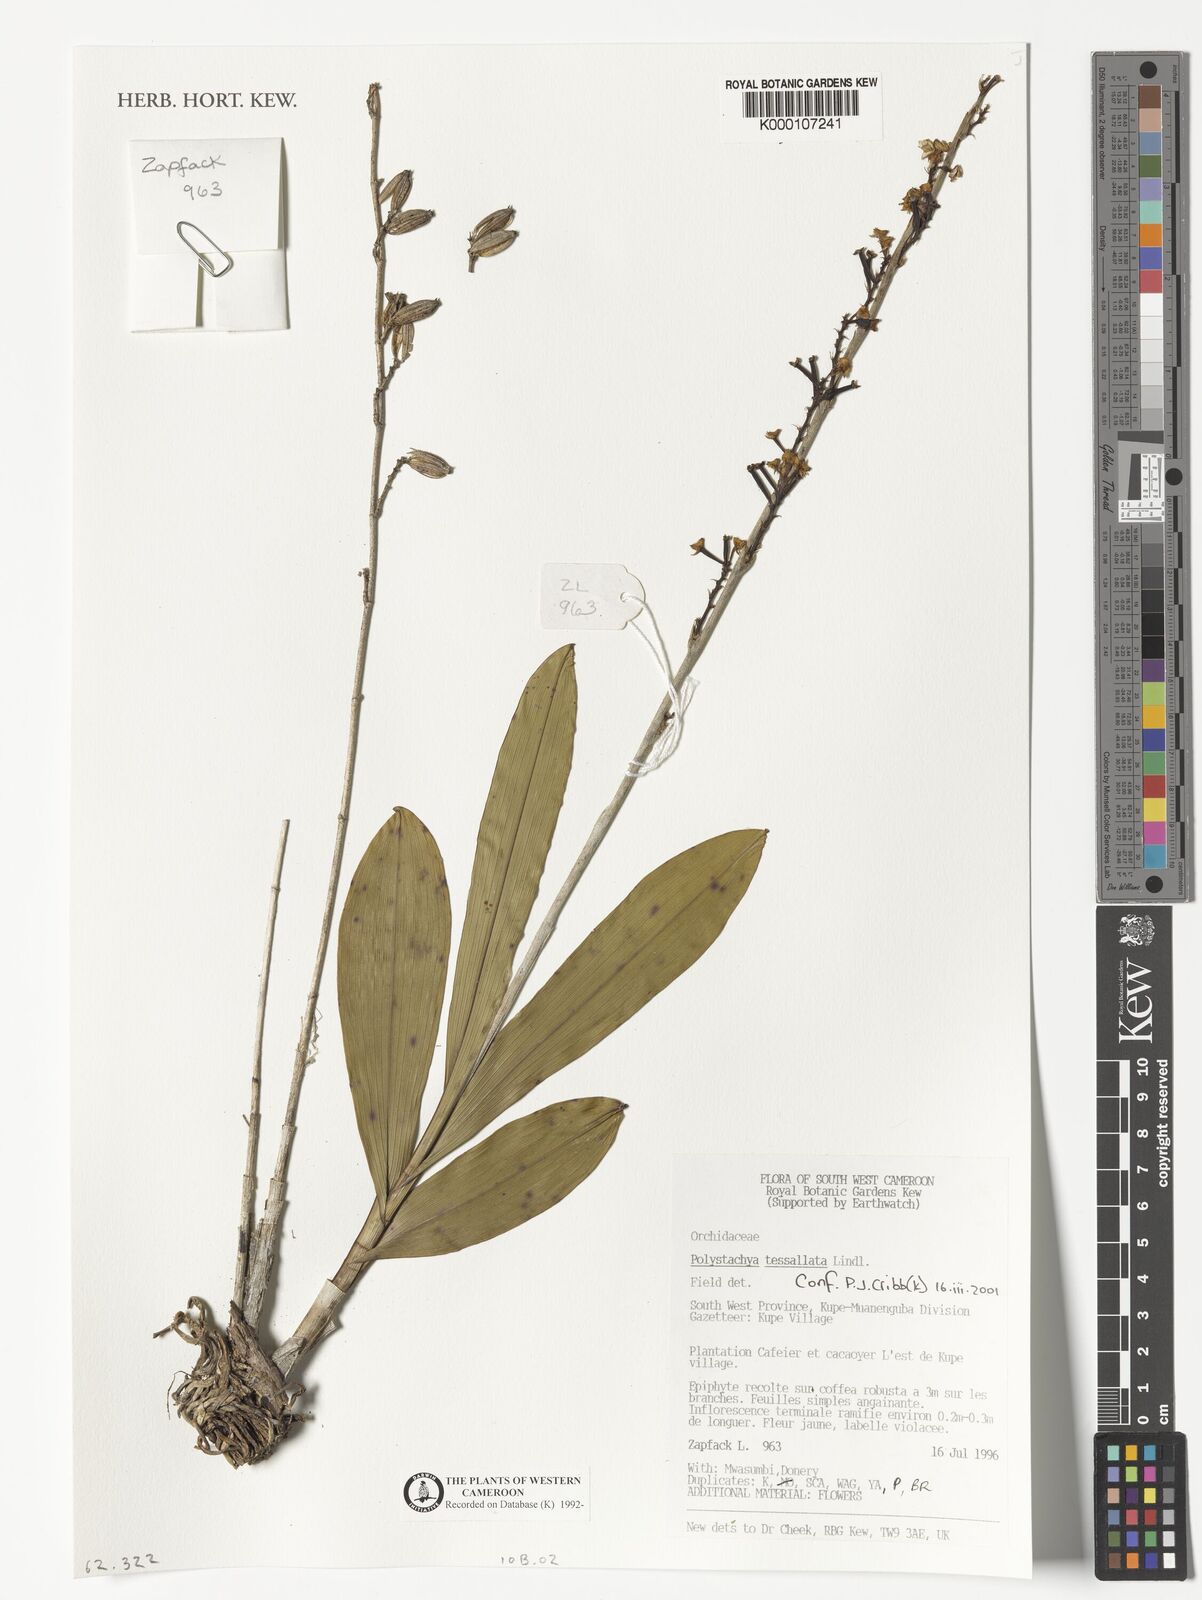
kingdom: Plantae
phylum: Tracheophyta
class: Liliopsida
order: Asparagales
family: Orchidaceae
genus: Polystachya
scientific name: Polystachya concreta
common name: Greater yellowspike orchid
